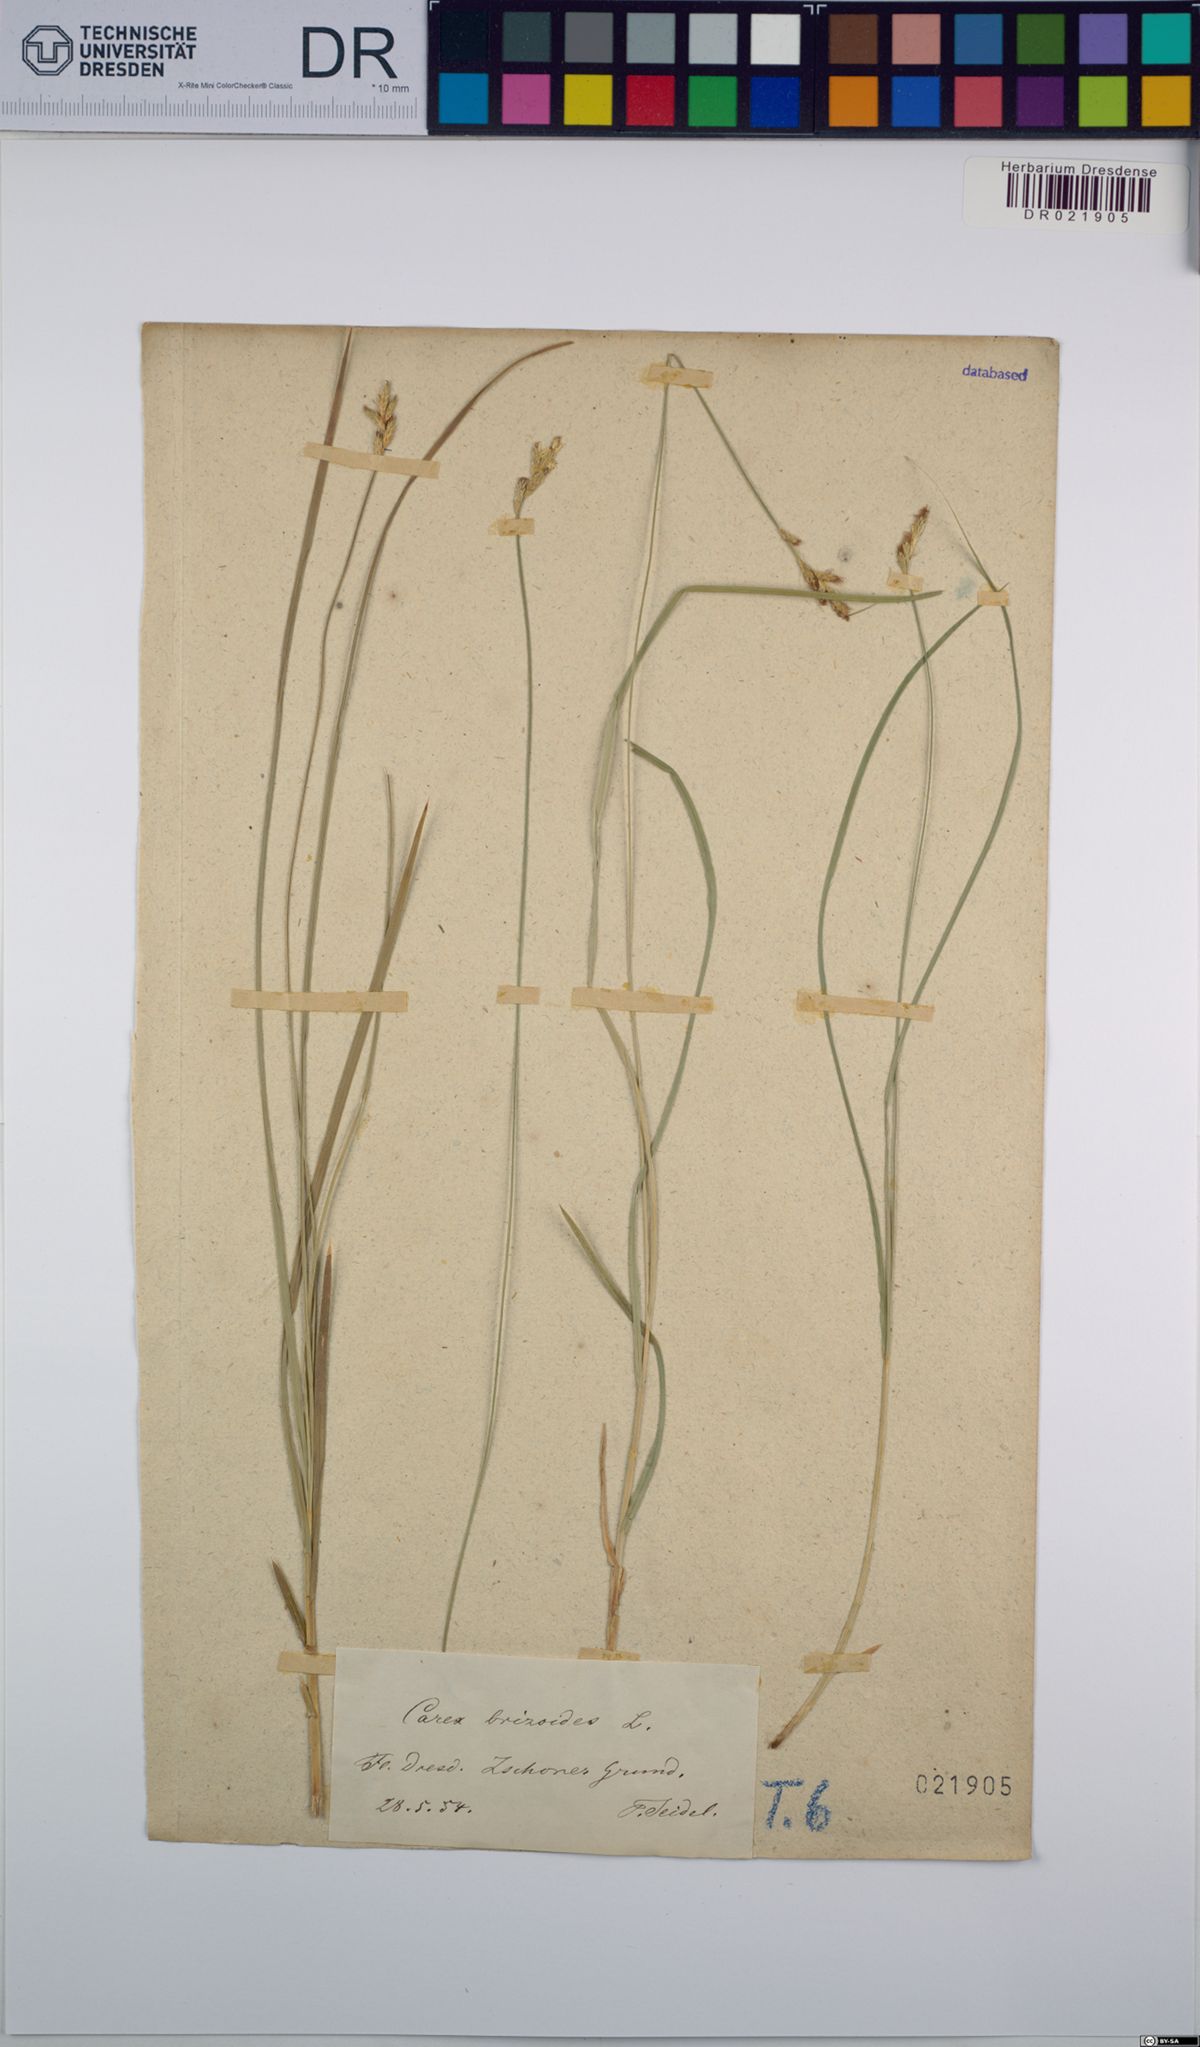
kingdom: Plantae
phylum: Tracheophyta
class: Liliopsida
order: Poales
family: Cyperaceae
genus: Carex
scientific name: Carex brizoides
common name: Quaking-grass sedge
